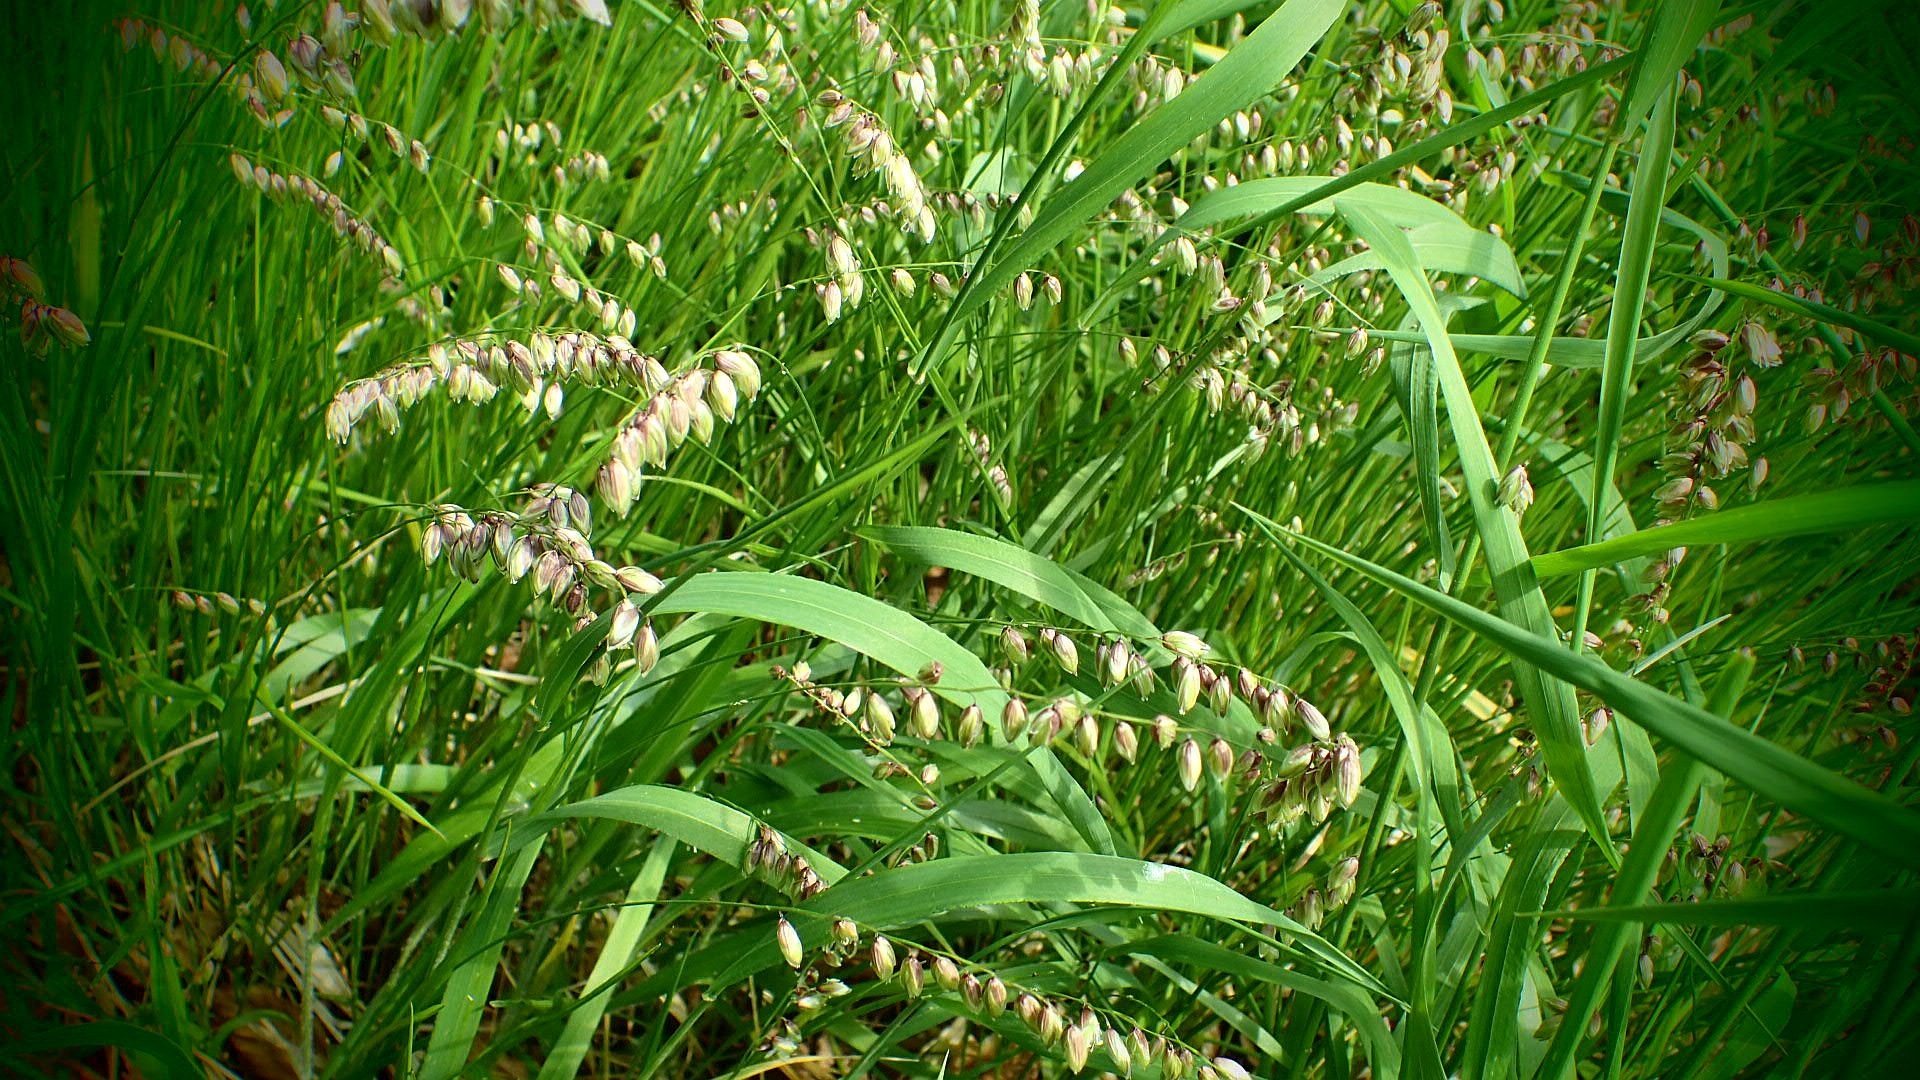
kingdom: Plantae
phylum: Tracheophyta
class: Liliopsida
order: Poales
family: Poaceae
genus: Melica
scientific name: Melica nutans
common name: Nikkende flitteraks
